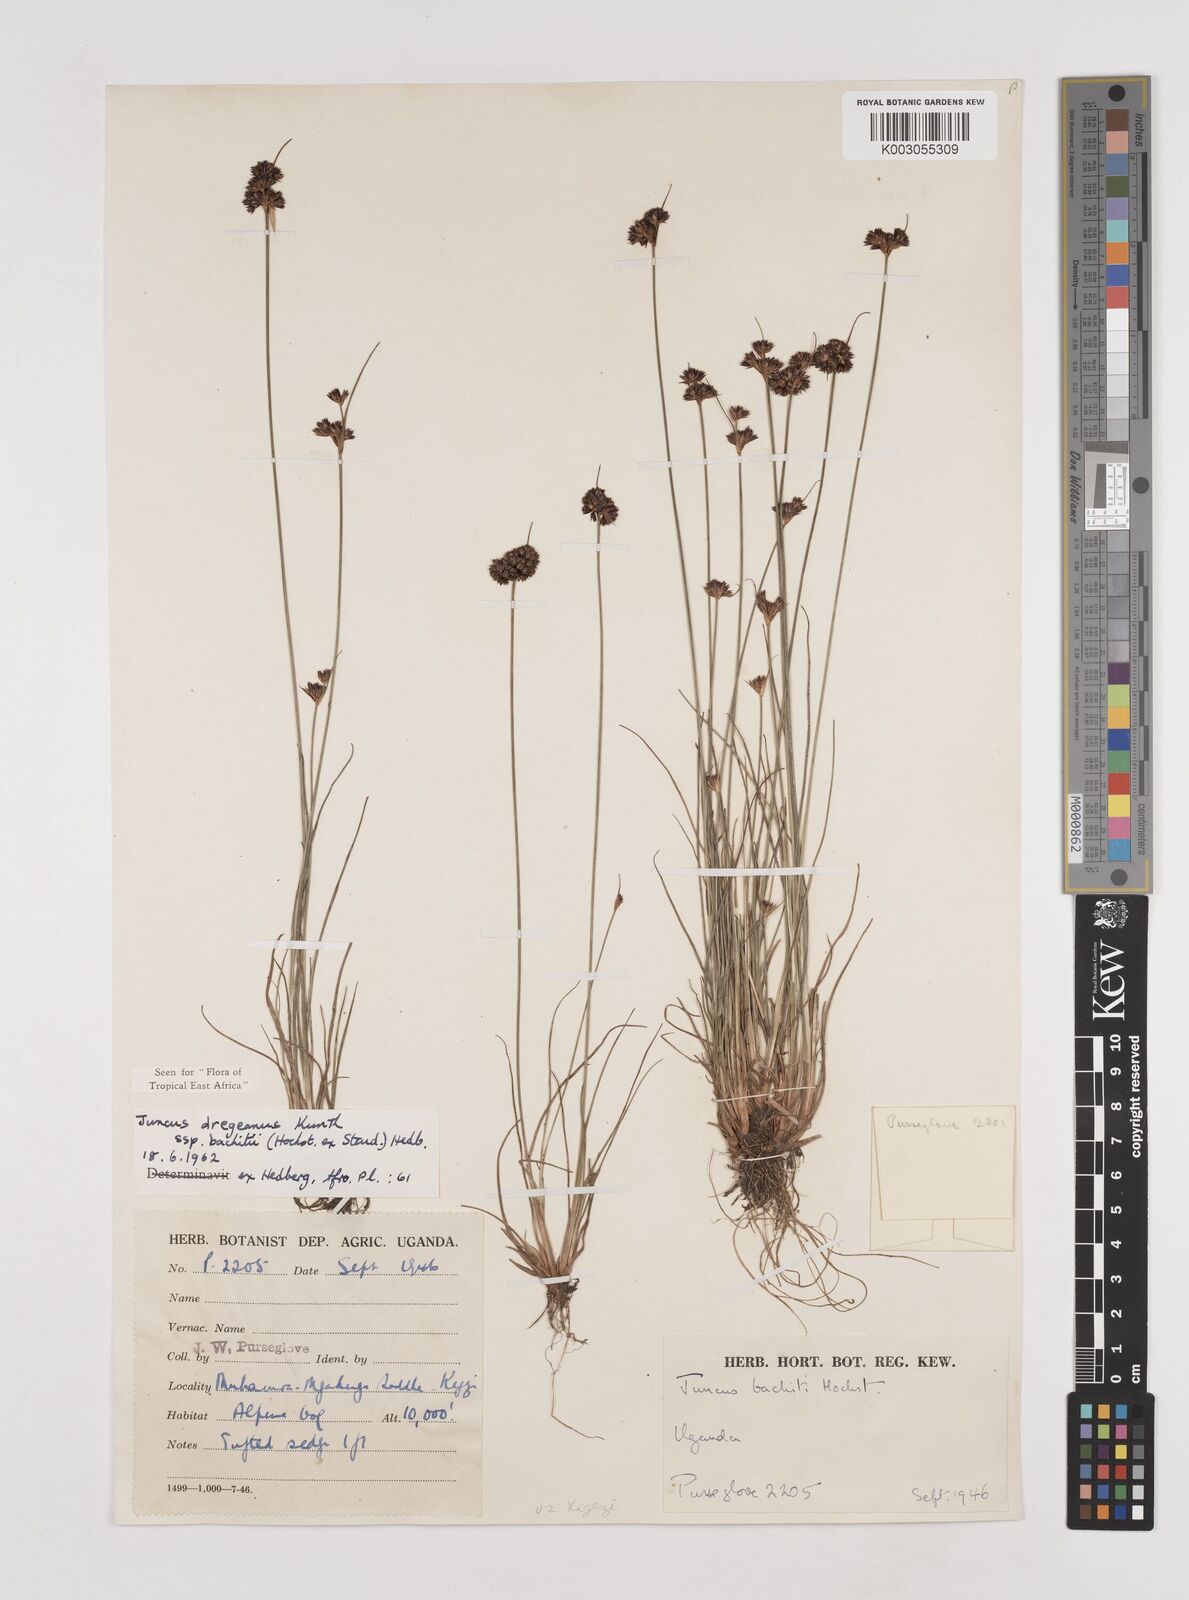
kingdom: Plantae
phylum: Tracheophyta
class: Liliopsida
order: Poales
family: Juncaceae
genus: Juncus
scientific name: Juncus dregeanus
